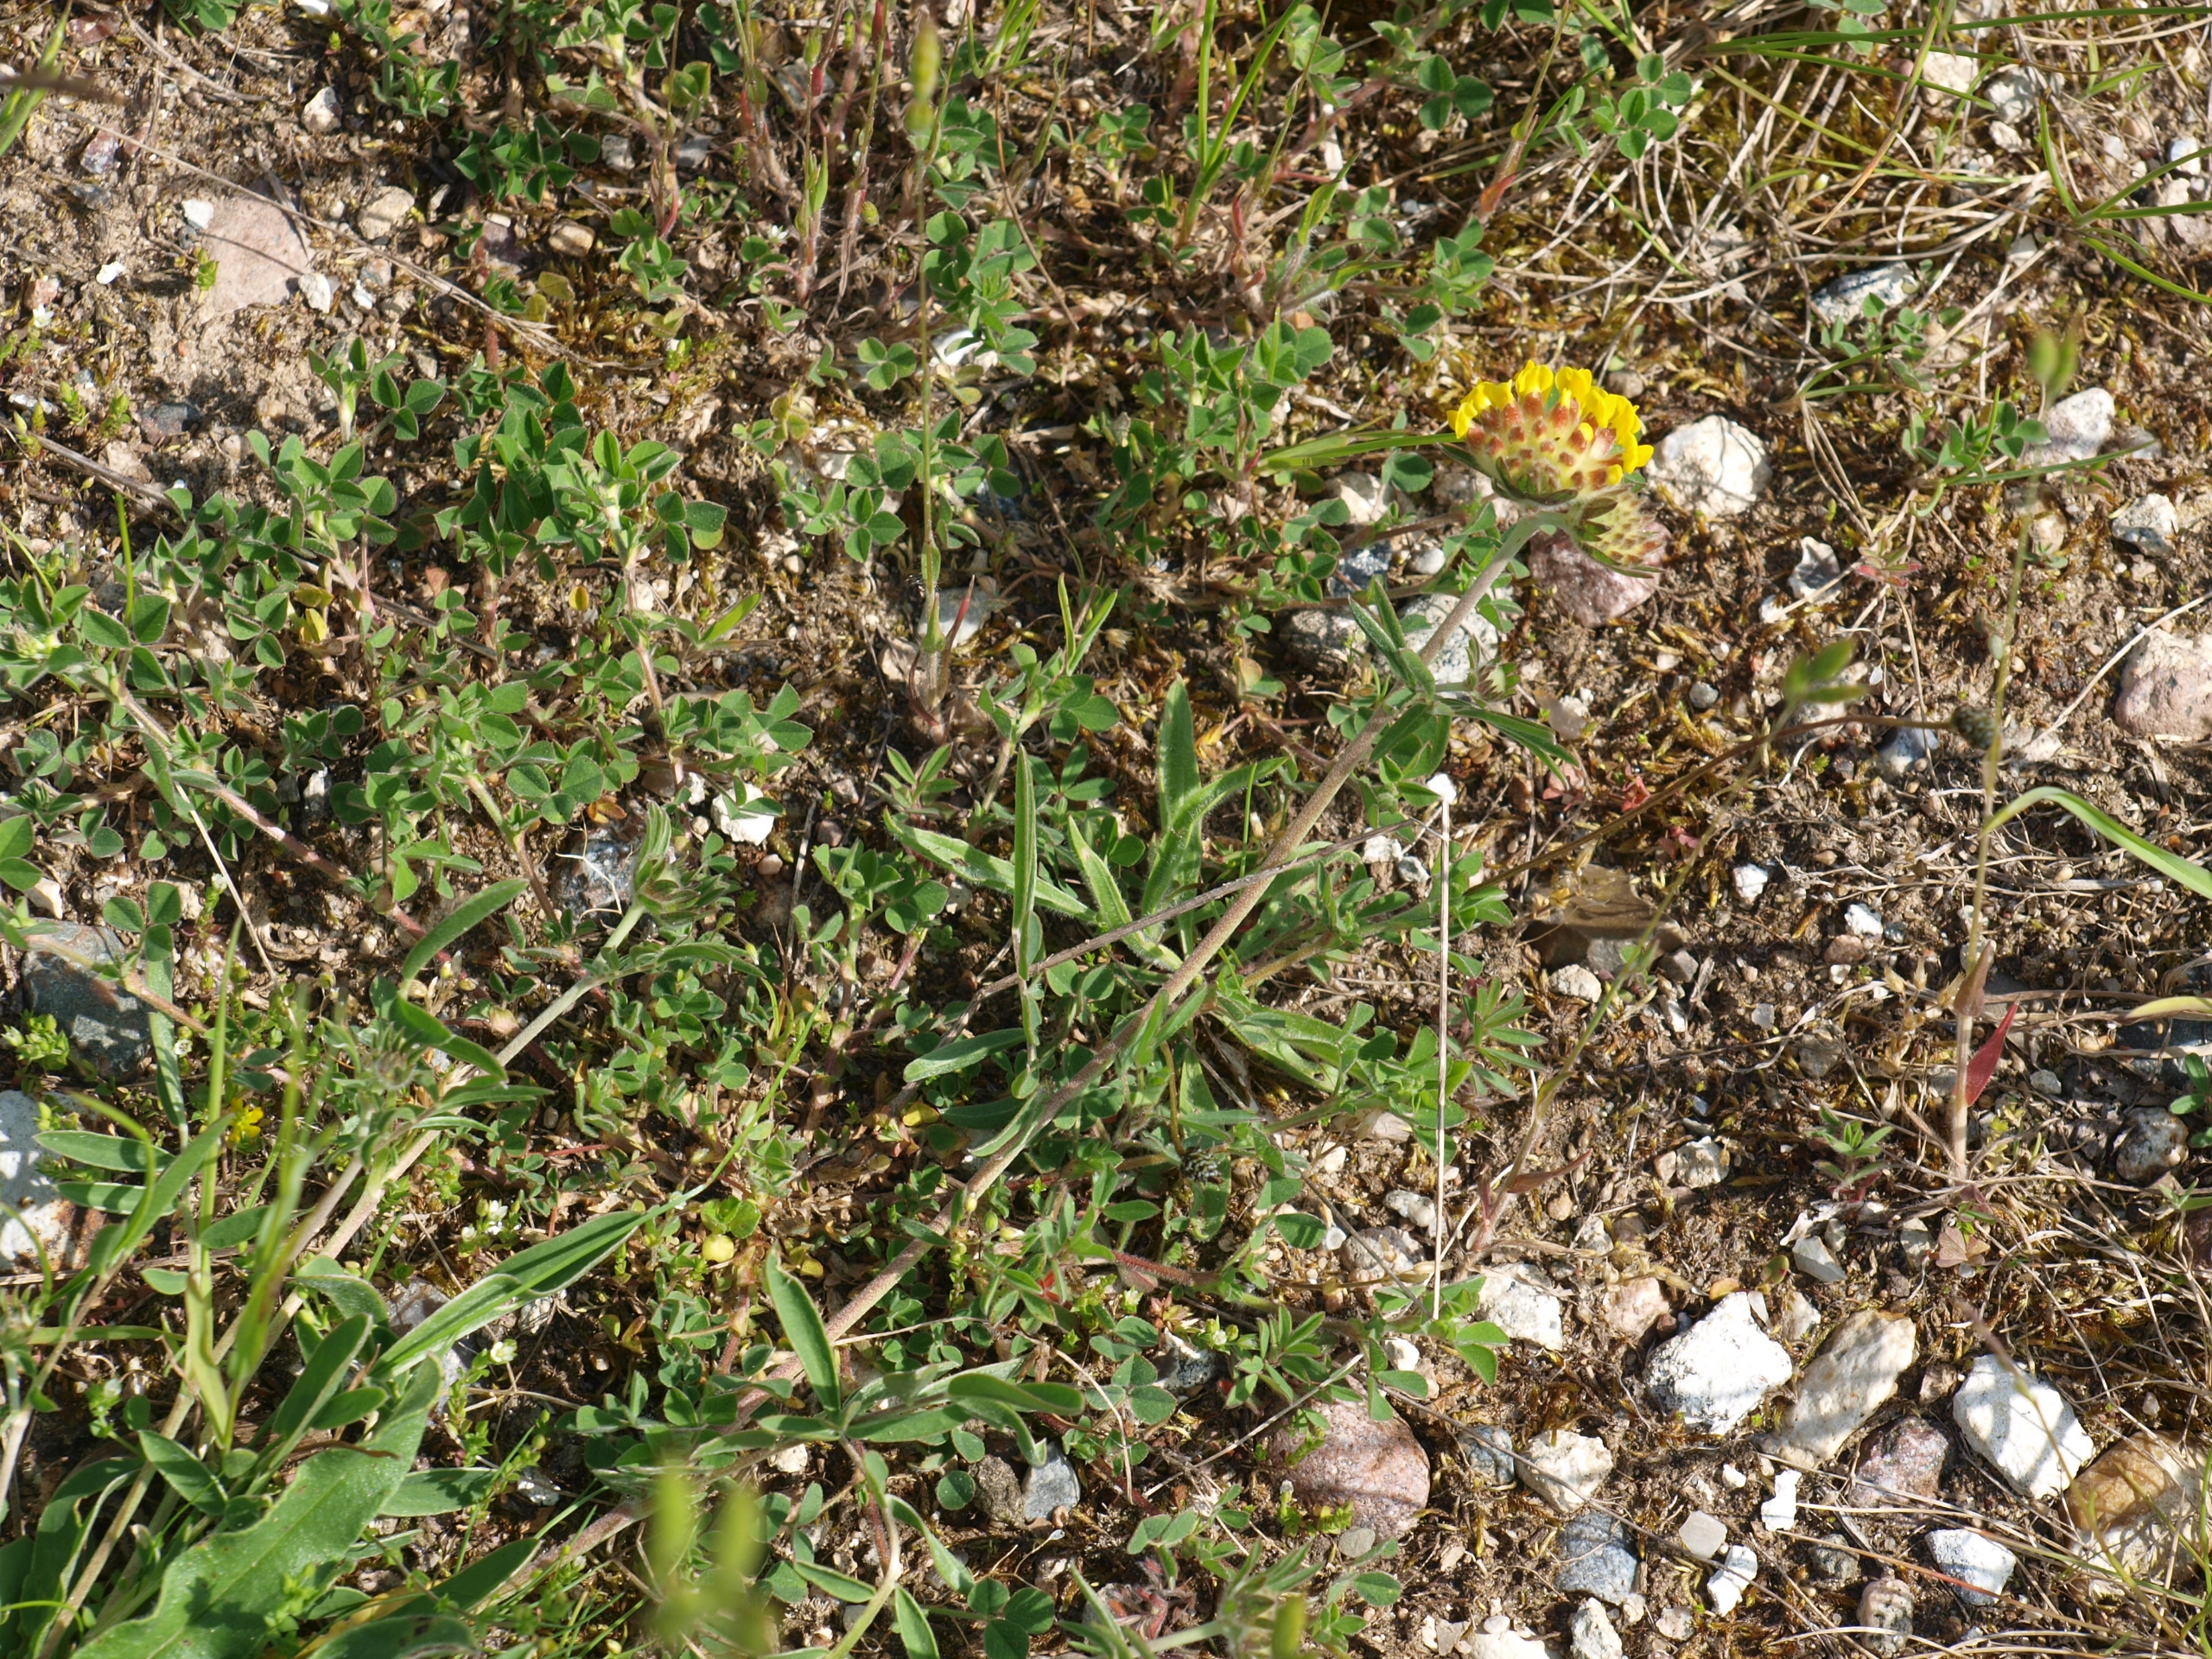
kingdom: Plantae
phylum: Tracheophyta
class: Magnoliopsida
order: Fabales
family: Fabaceae
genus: Anthyllis
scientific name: Anthyllis vulneraria
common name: Rundbælg
